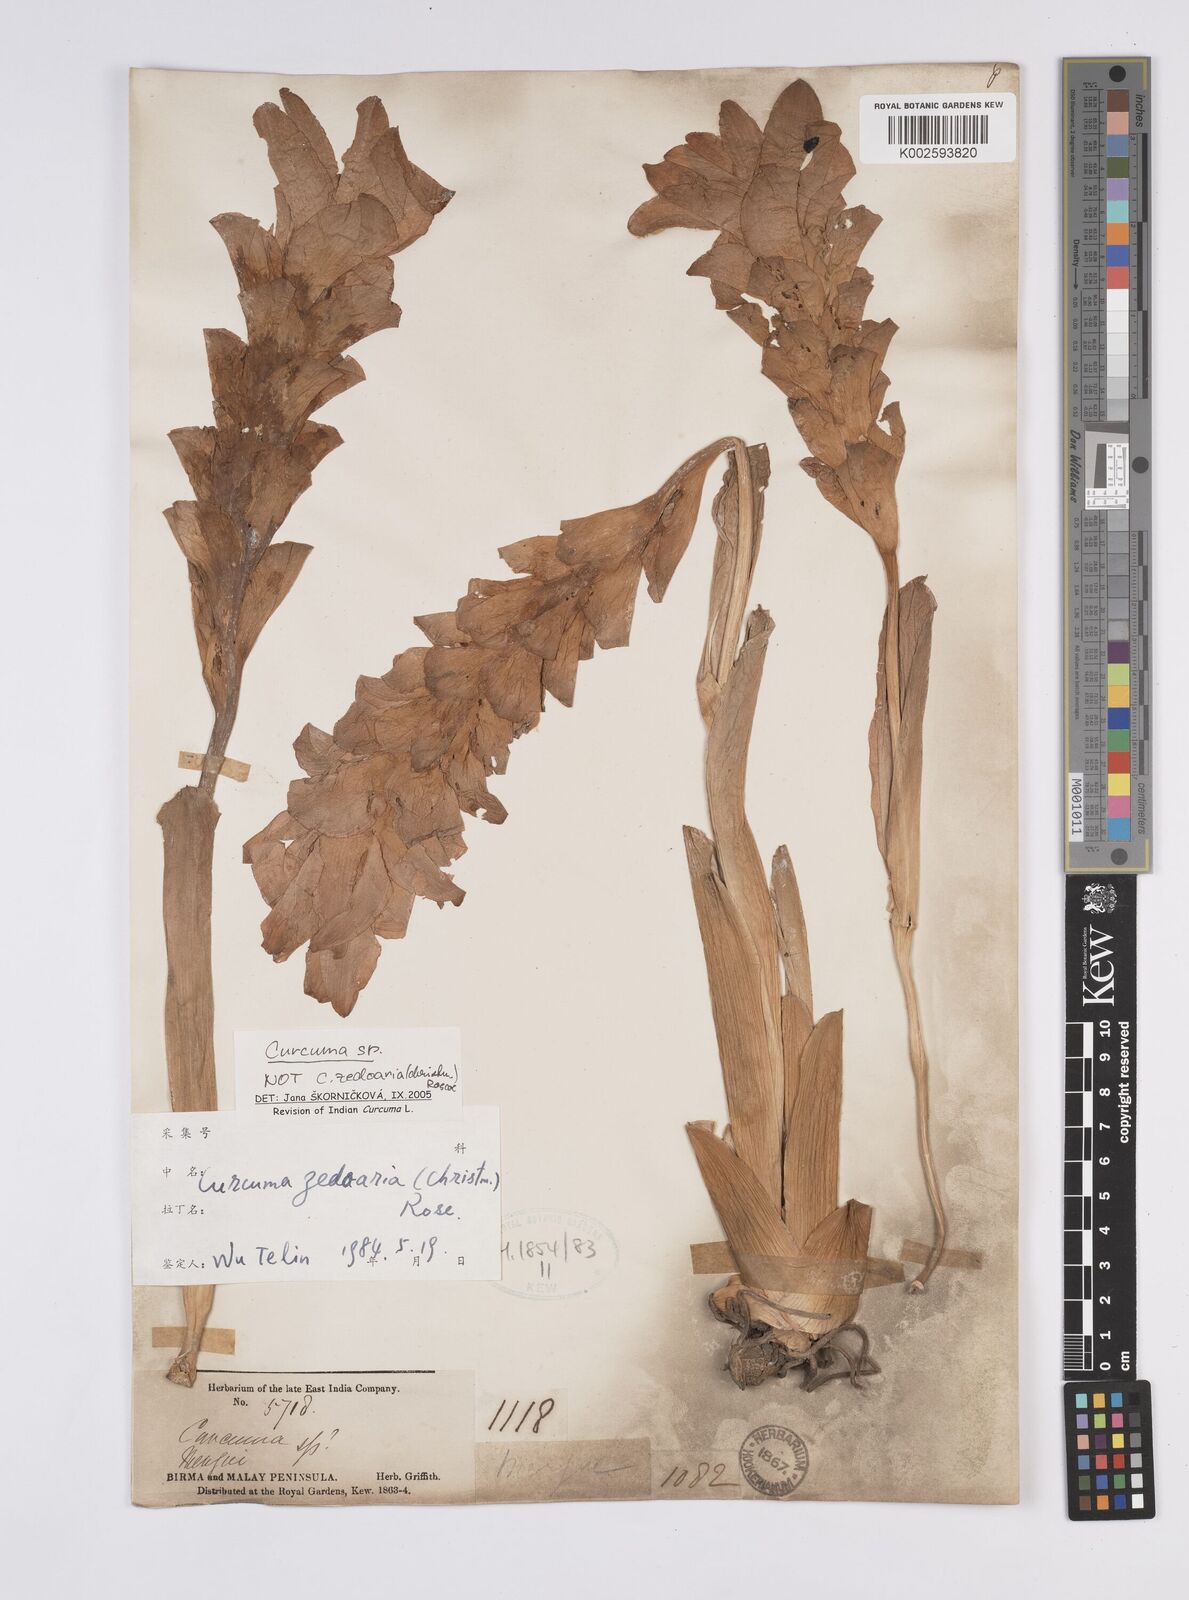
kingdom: Plantae
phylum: Tracheophyta
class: Liliopsida
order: Zingiberales
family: Zingiberaceae
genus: Curcuma
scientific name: Curcuma leucorrhiza
